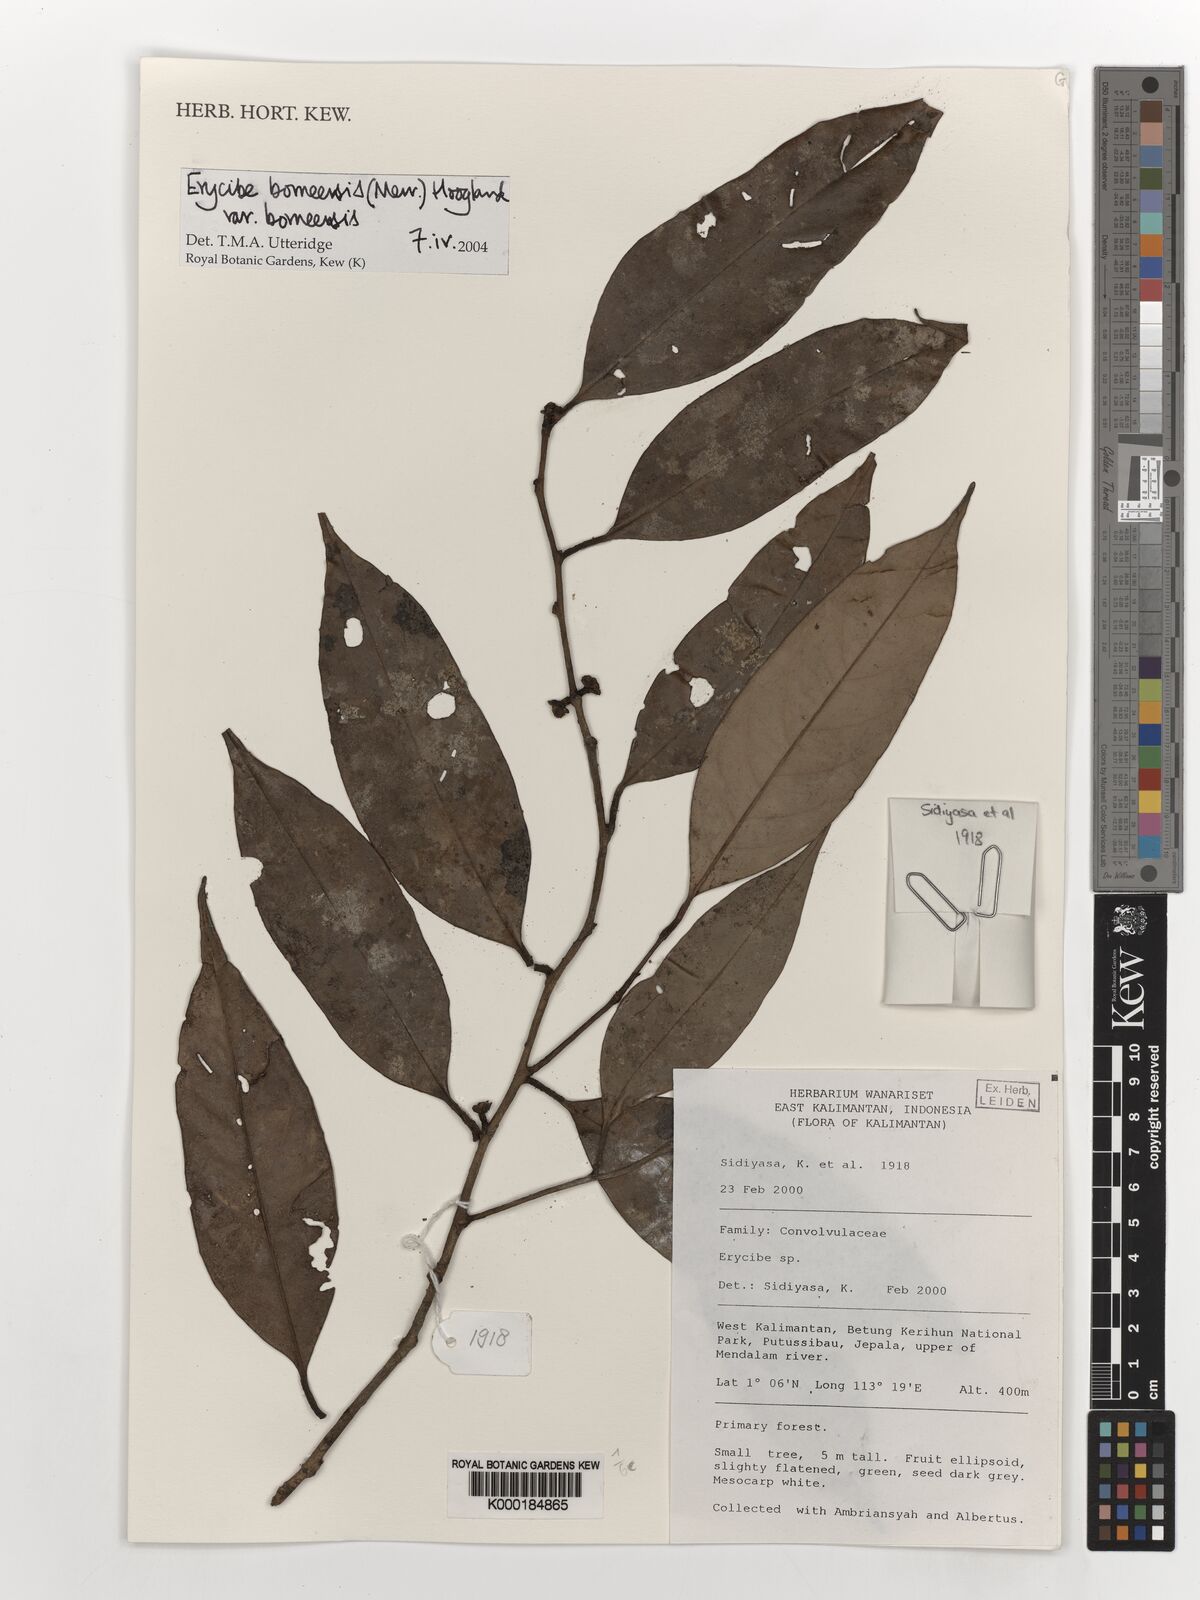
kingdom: Plantae
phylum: Tracheophyta
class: Magnoliopsida
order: Solanales
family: Convolvulaceae
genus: Erycibe
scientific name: Erycibe borneensis
